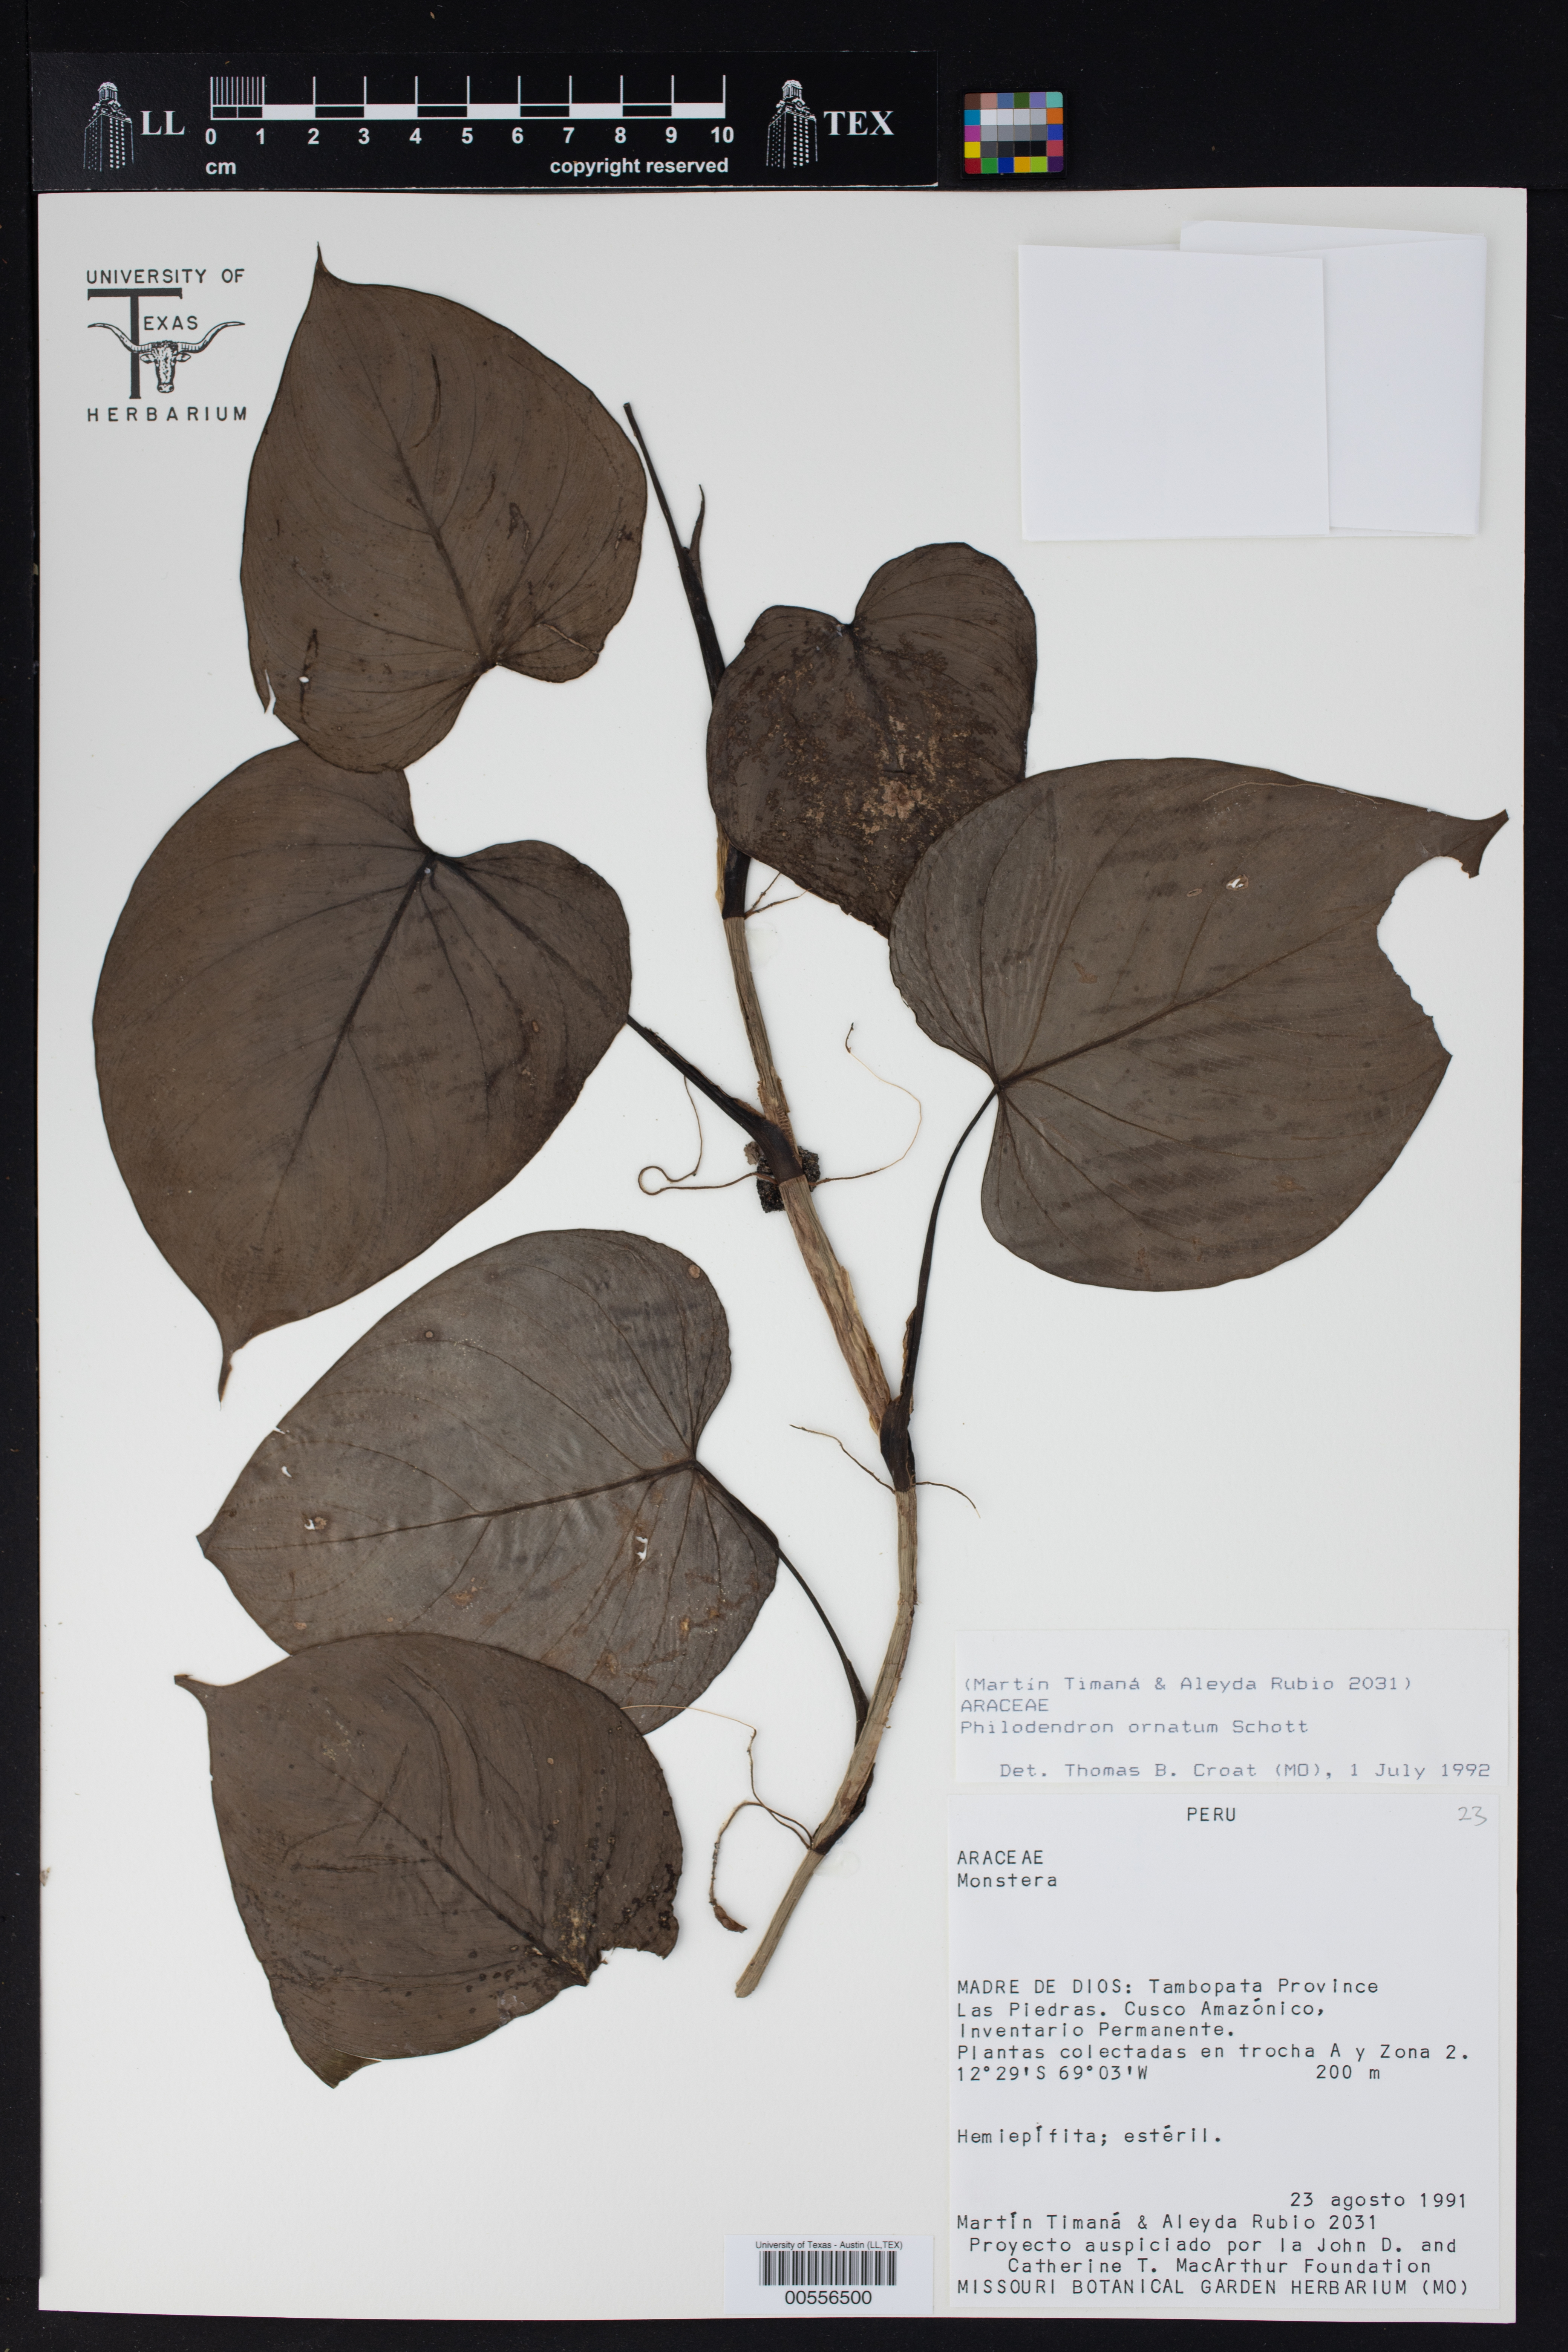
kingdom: Plantae
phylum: Tracheophyta
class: Liliopsida
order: Alismatales
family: Araceae
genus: Philodendron
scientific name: Philodendron ornatum
